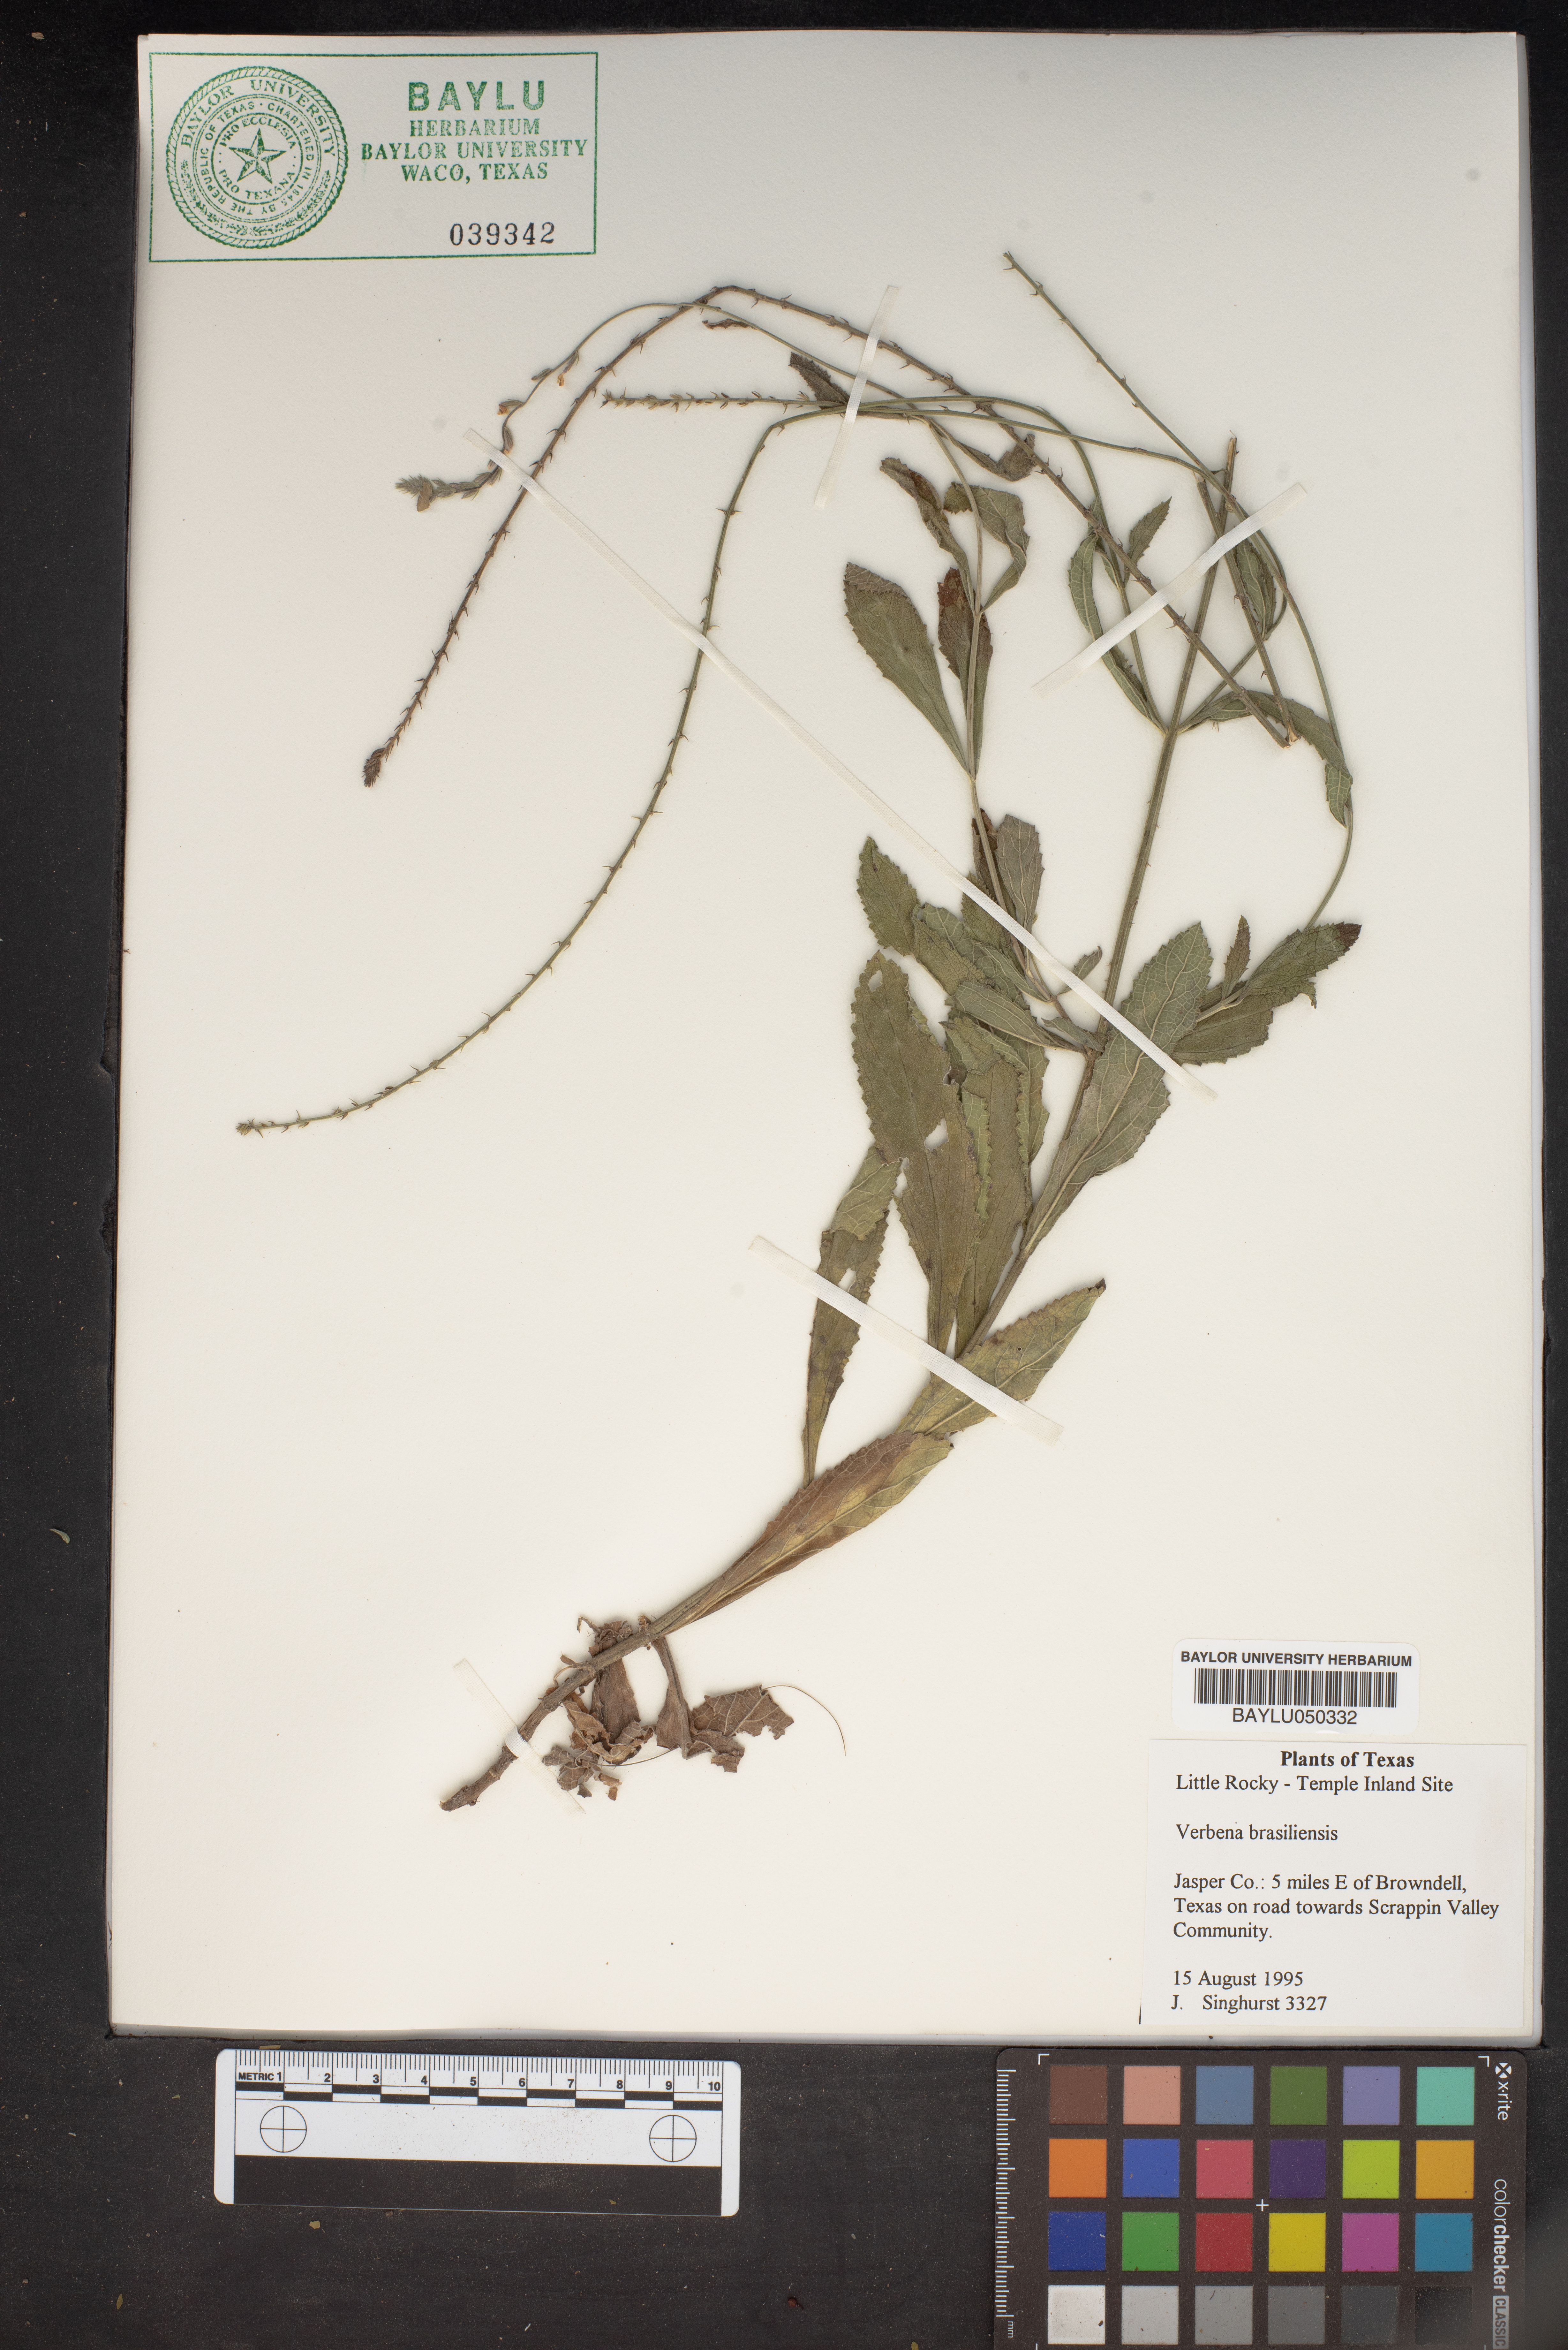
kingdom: Plantae
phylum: Tracheophyta
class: Magnoliopsida
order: Lamiales
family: Verbenaceae
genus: Verbena
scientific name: Verbena brasiliensis
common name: Brazilian vervain
